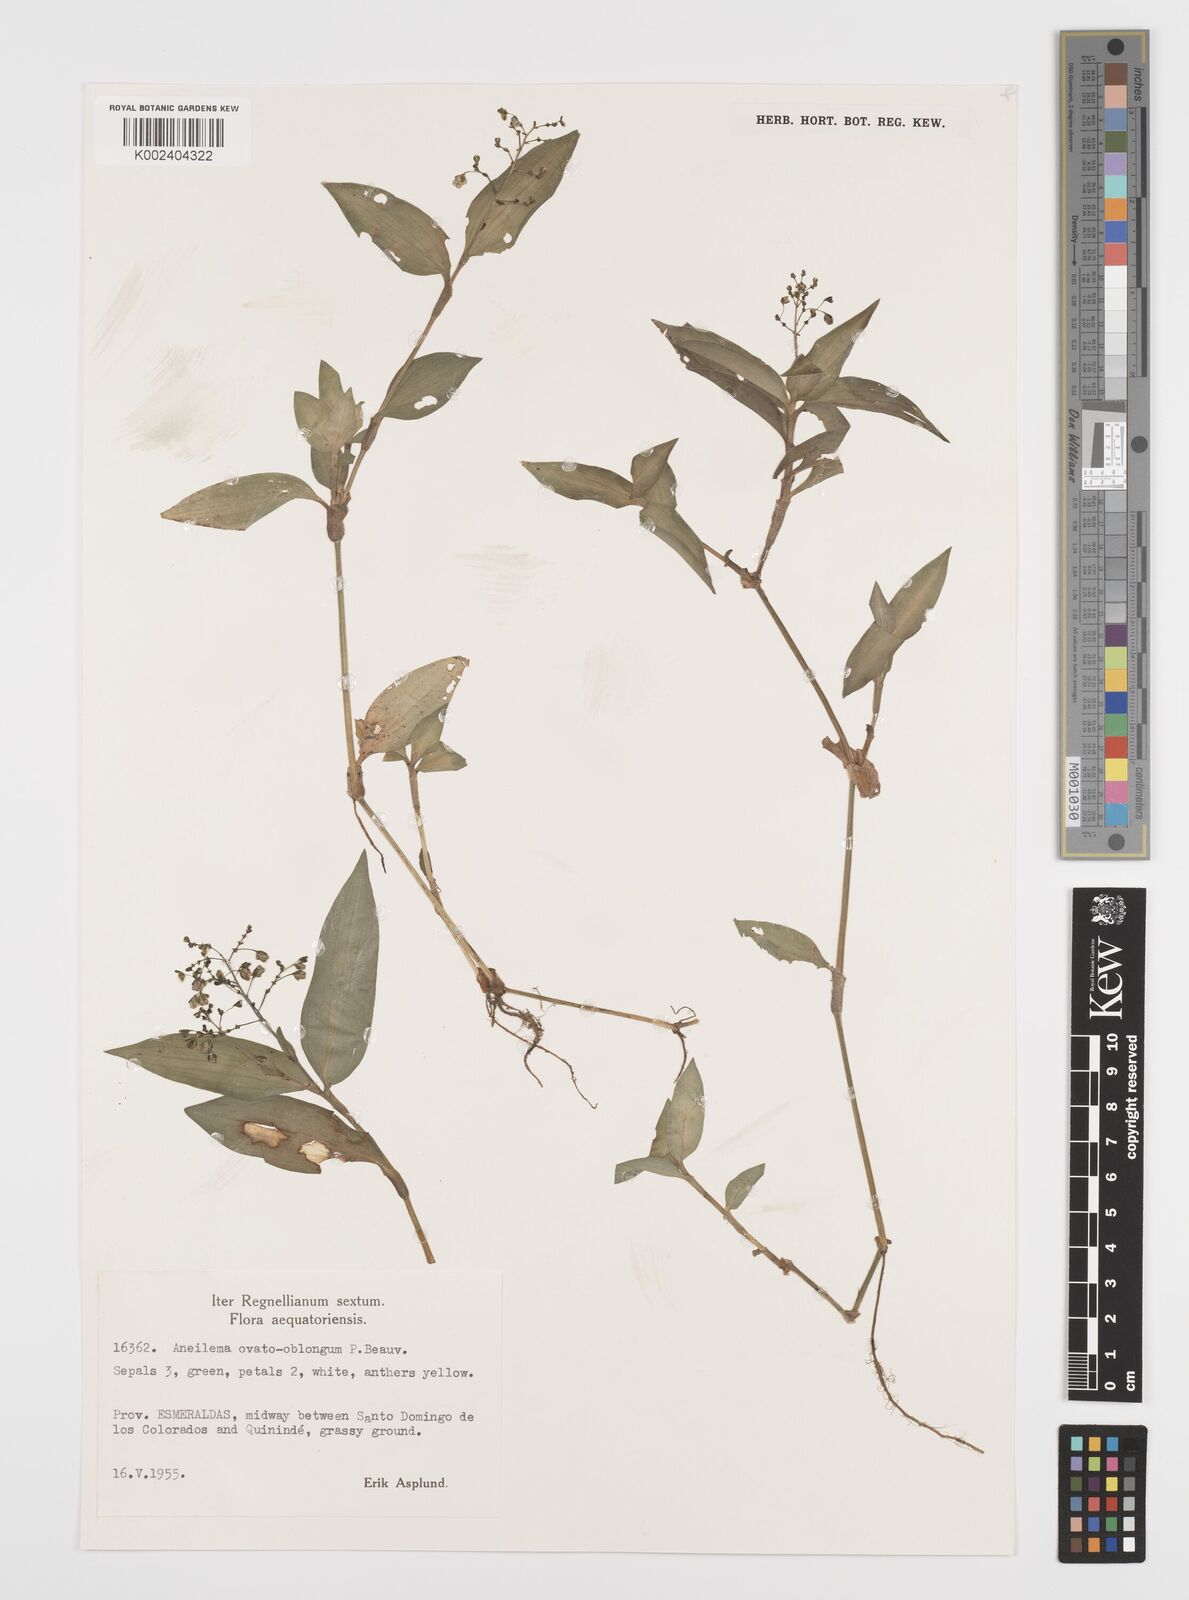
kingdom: Plantae
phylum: Tracheophyta
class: Liliopsida
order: Commelinales
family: Commelinaceae
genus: Aneilema
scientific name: Aneilema umbrosum
